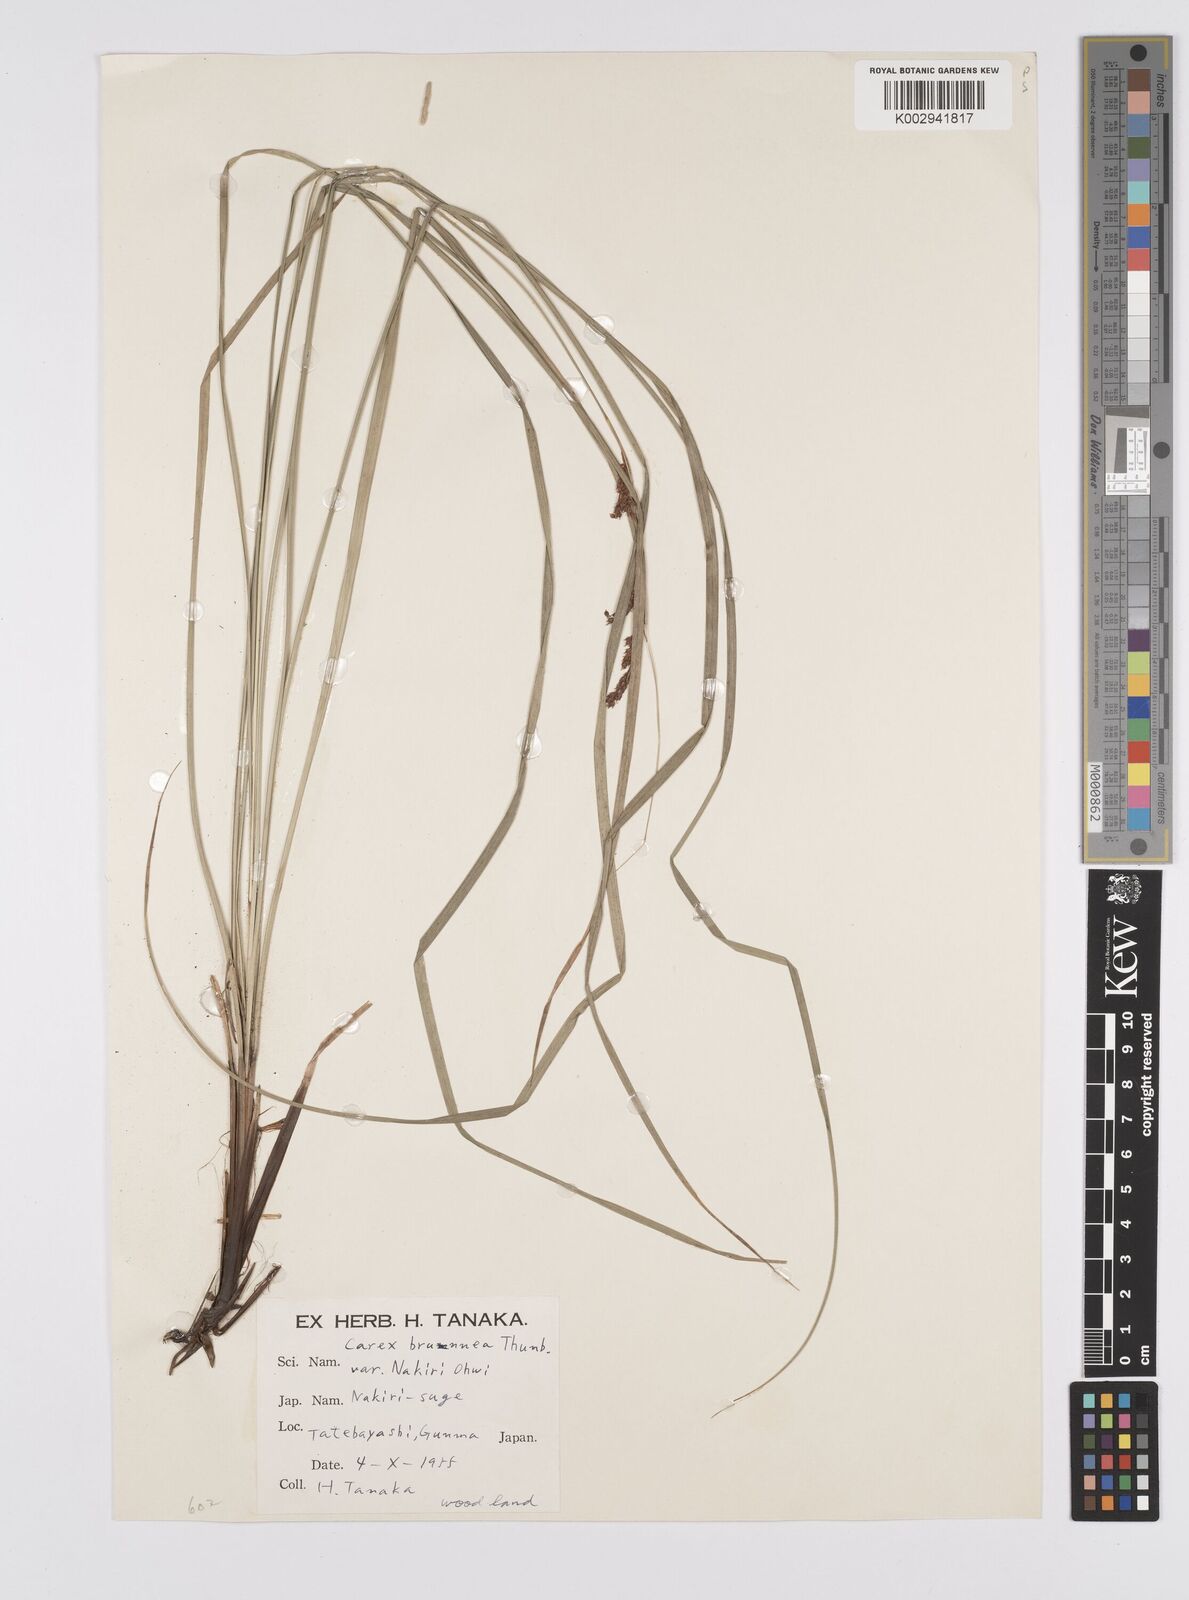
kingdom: Plantae
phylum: Tracheophyta
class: Liliopsida
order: Poales
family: Cyperaceae
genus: Carex
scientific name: Carex brunnea
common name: Greater brown sedge
